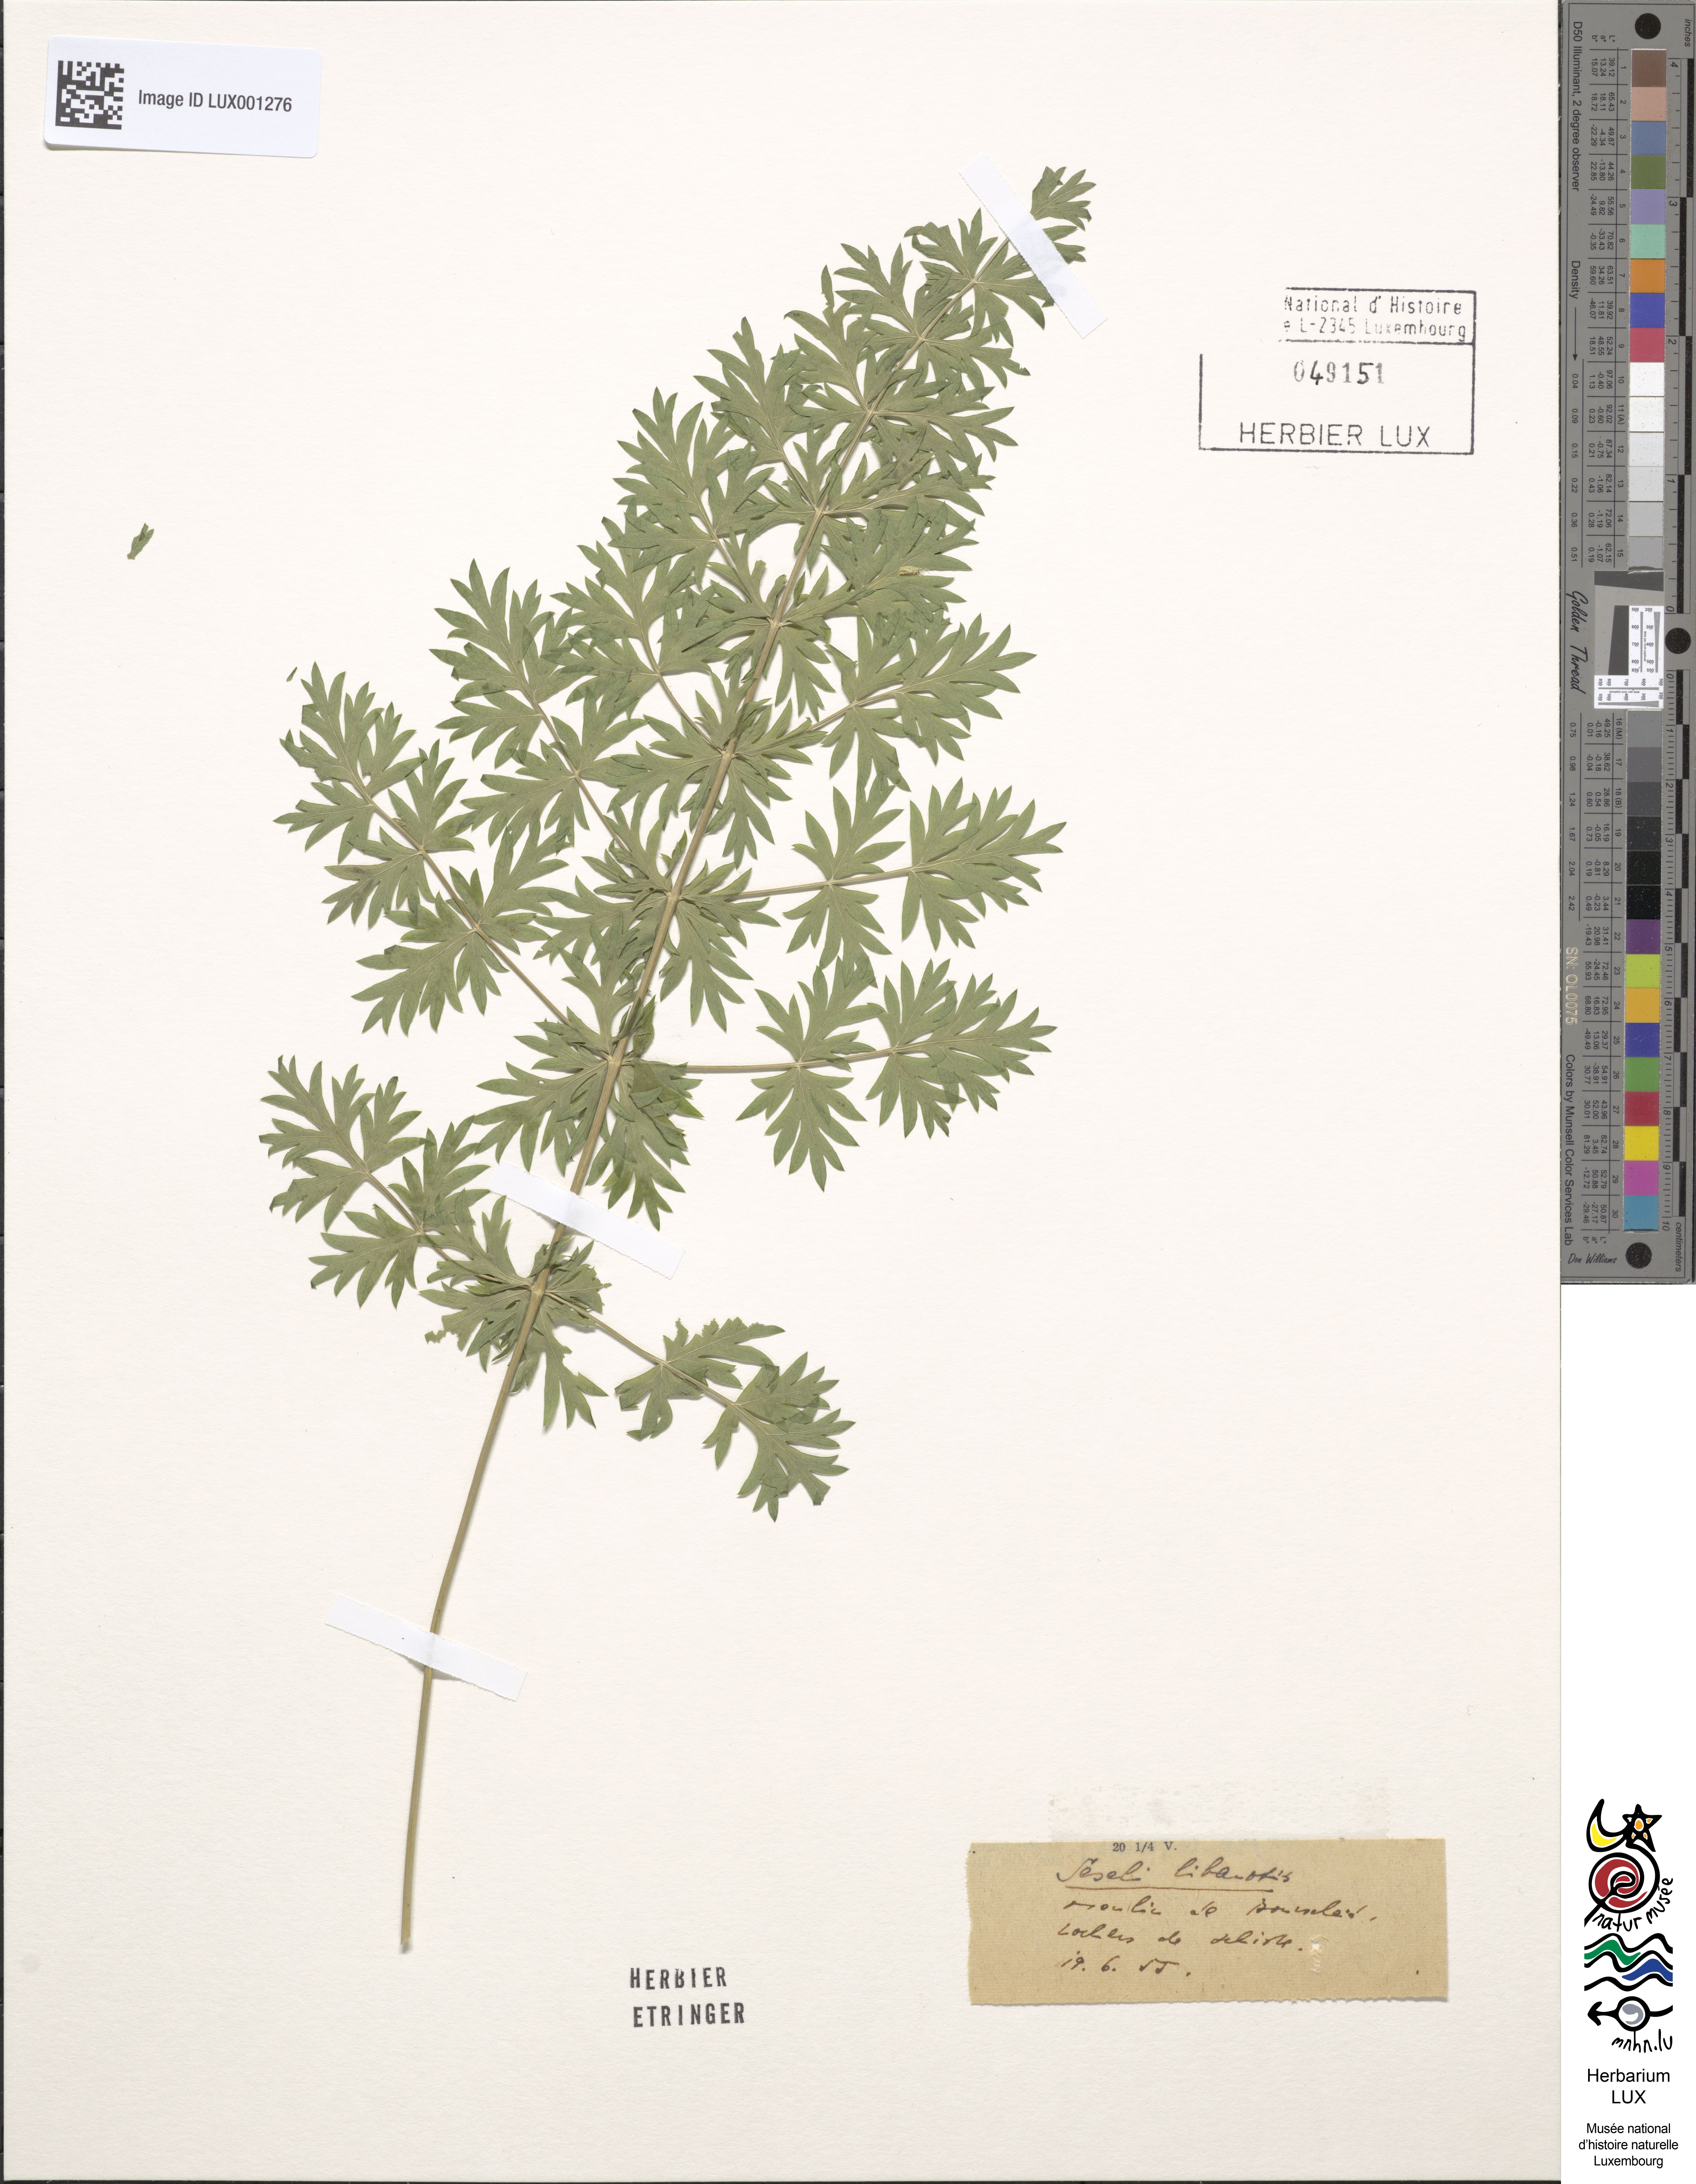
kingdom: Plantae
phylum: Tracheophyta
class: Magnoliopsida
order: Apiales
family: Apiaceae
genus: Seseli
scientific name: Seseli libanotis
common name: Mooncarrot
